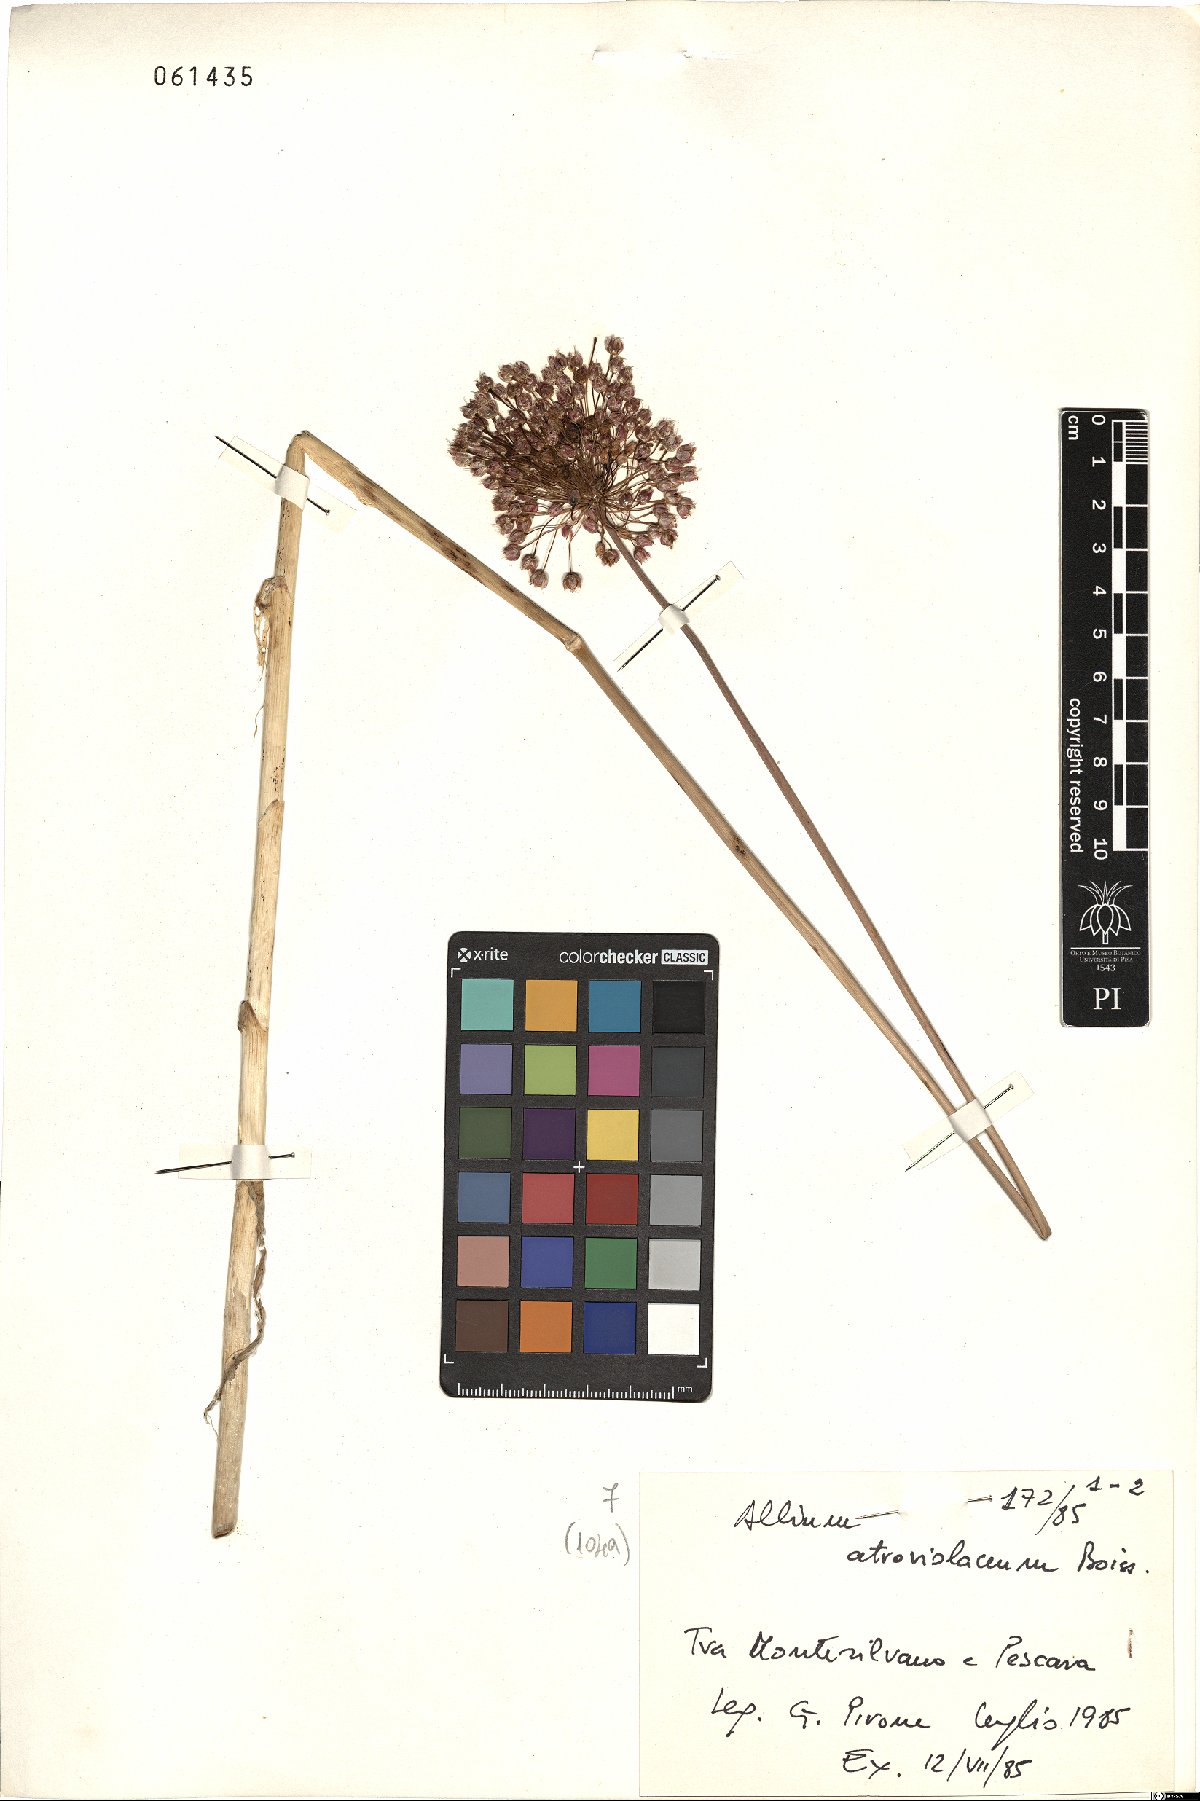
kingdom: Plantae
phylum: Tracheophyta
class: Liliopsida
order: Asparagales
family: Amaryllidaceae
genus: Allium
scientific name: Allium atroviolaceum
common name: Broadleaf wild leek
